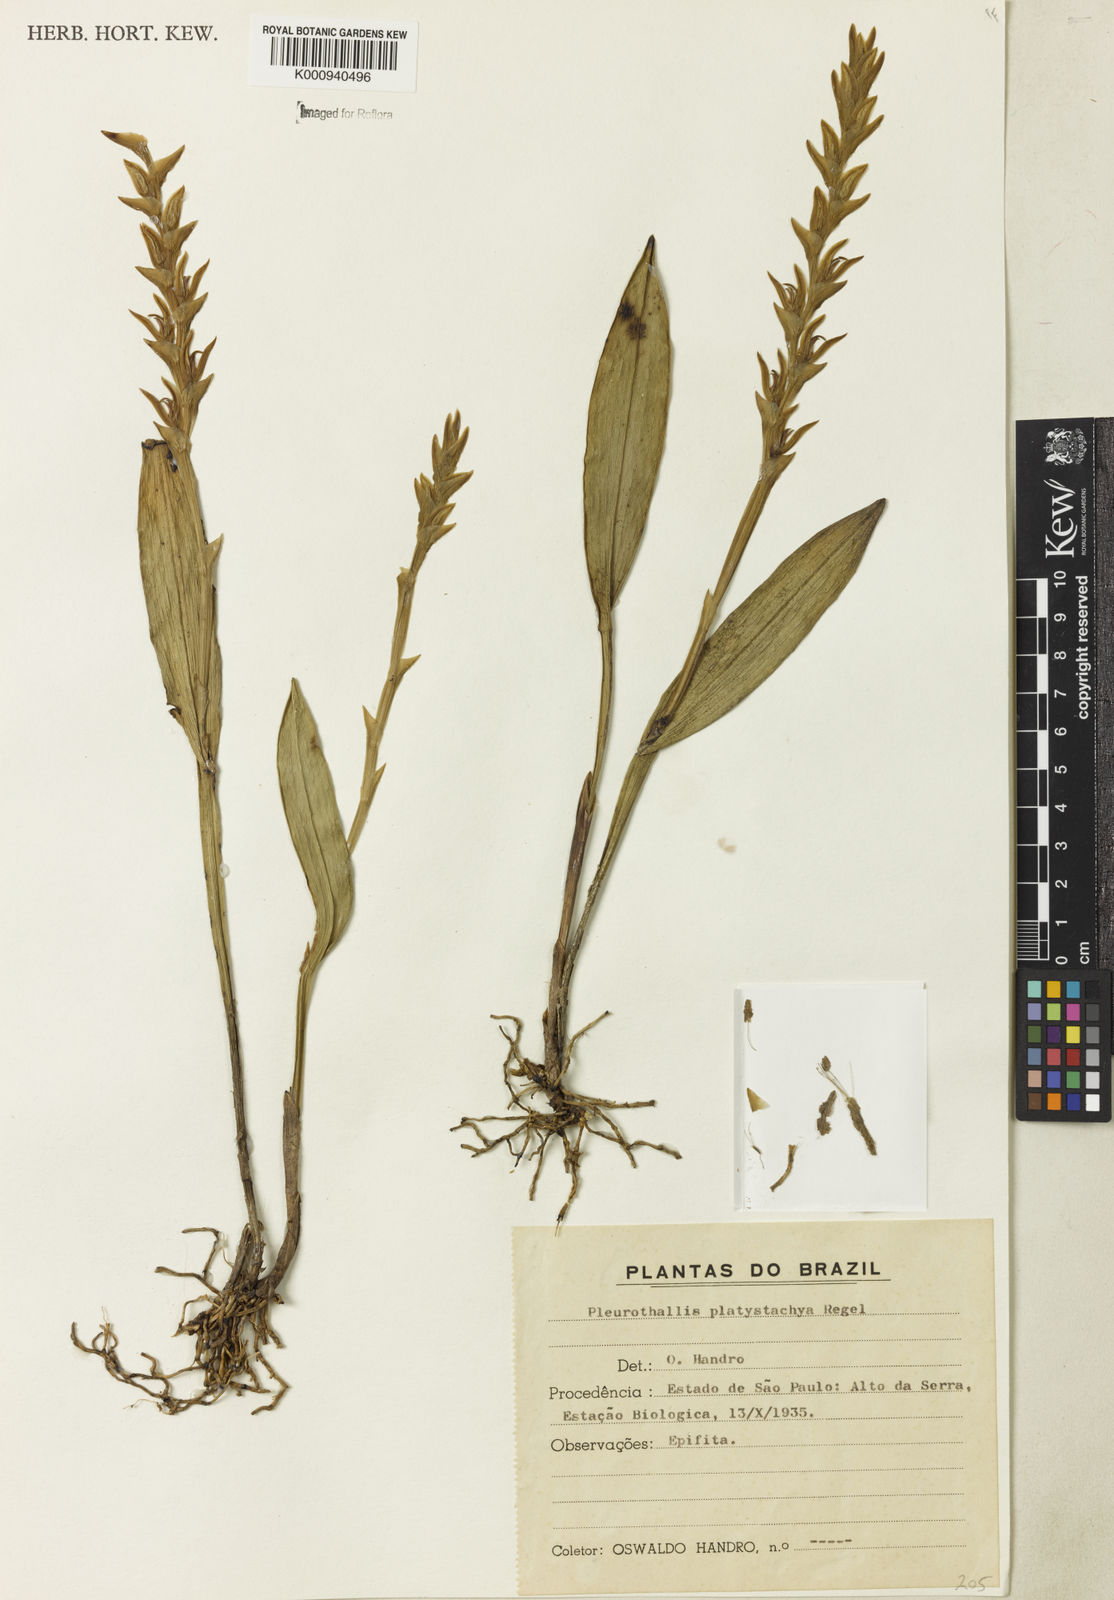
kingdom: Plantae
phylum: Tracheophyta
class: Liliopsida
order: Asparagales
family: Orchidaceae
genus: Acianthera
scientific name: Acianthera
